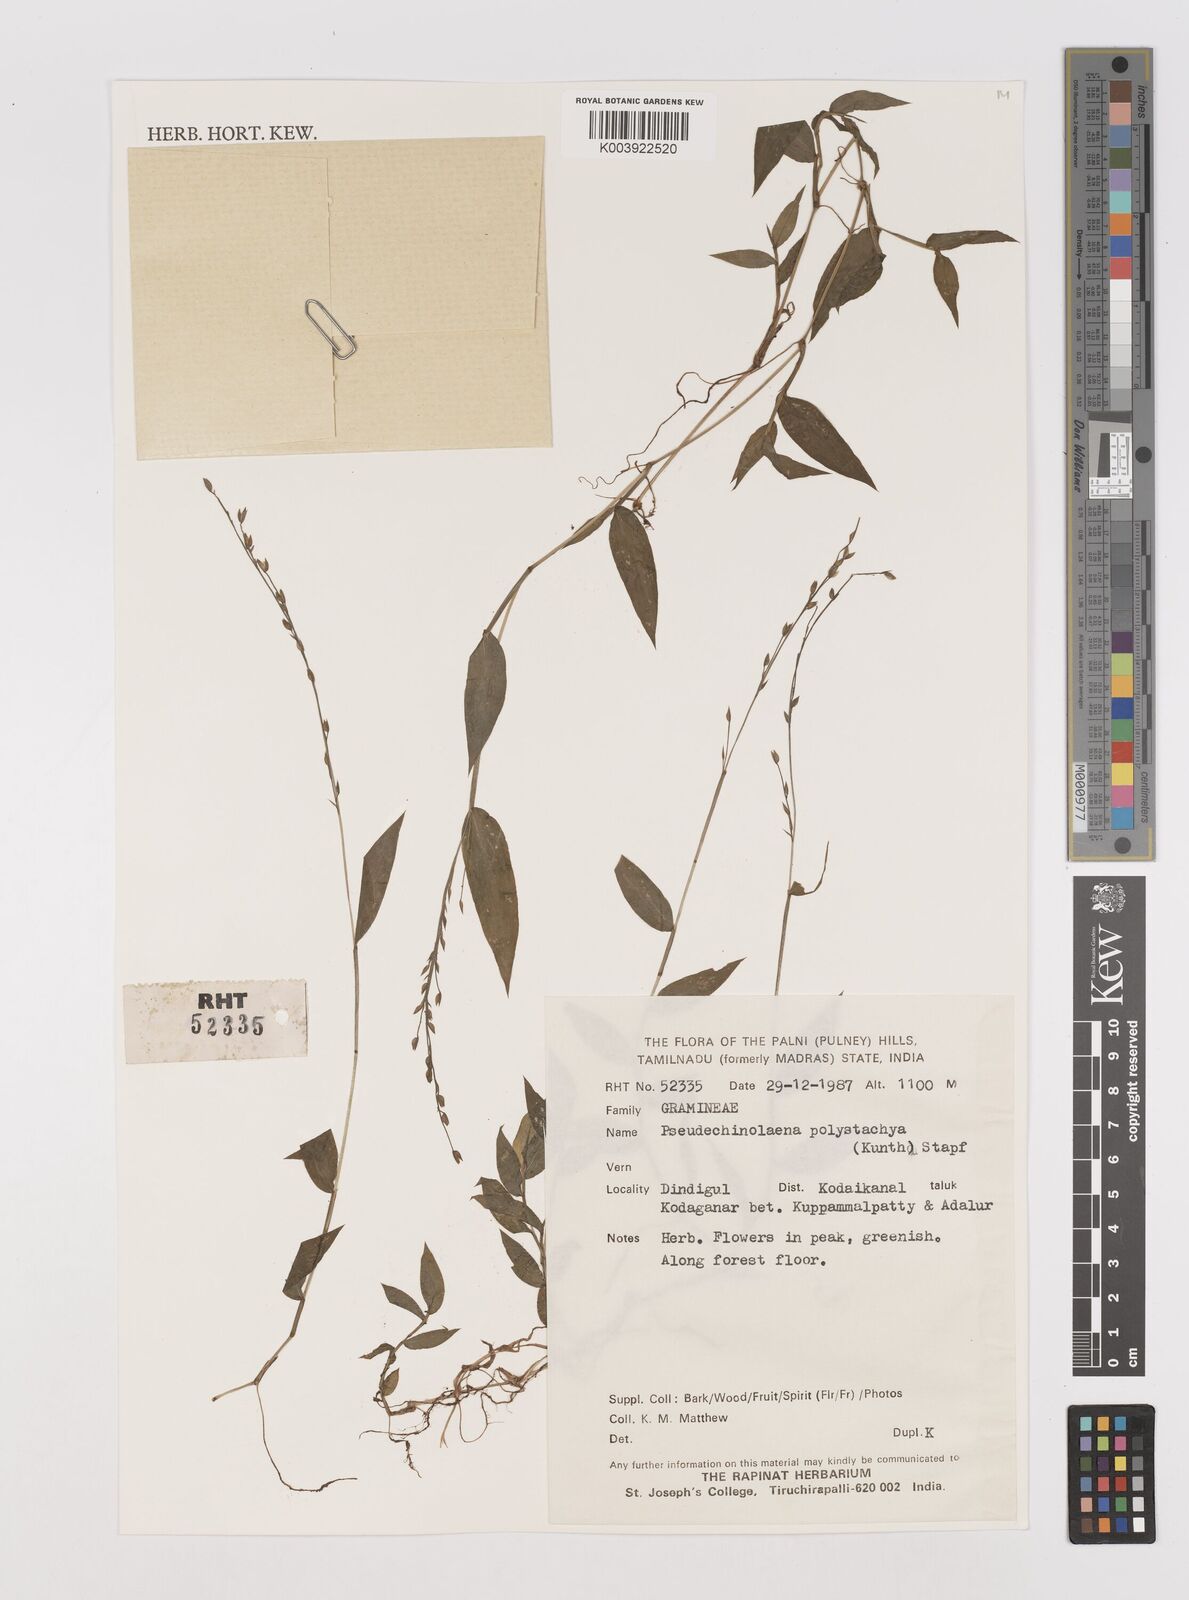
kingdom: Plantae
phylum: Tracheophyta
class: Liliopsida
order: Poales
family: Poaceae
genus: Pseudechinolaena
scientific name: Pseudechinolaena polystachya
